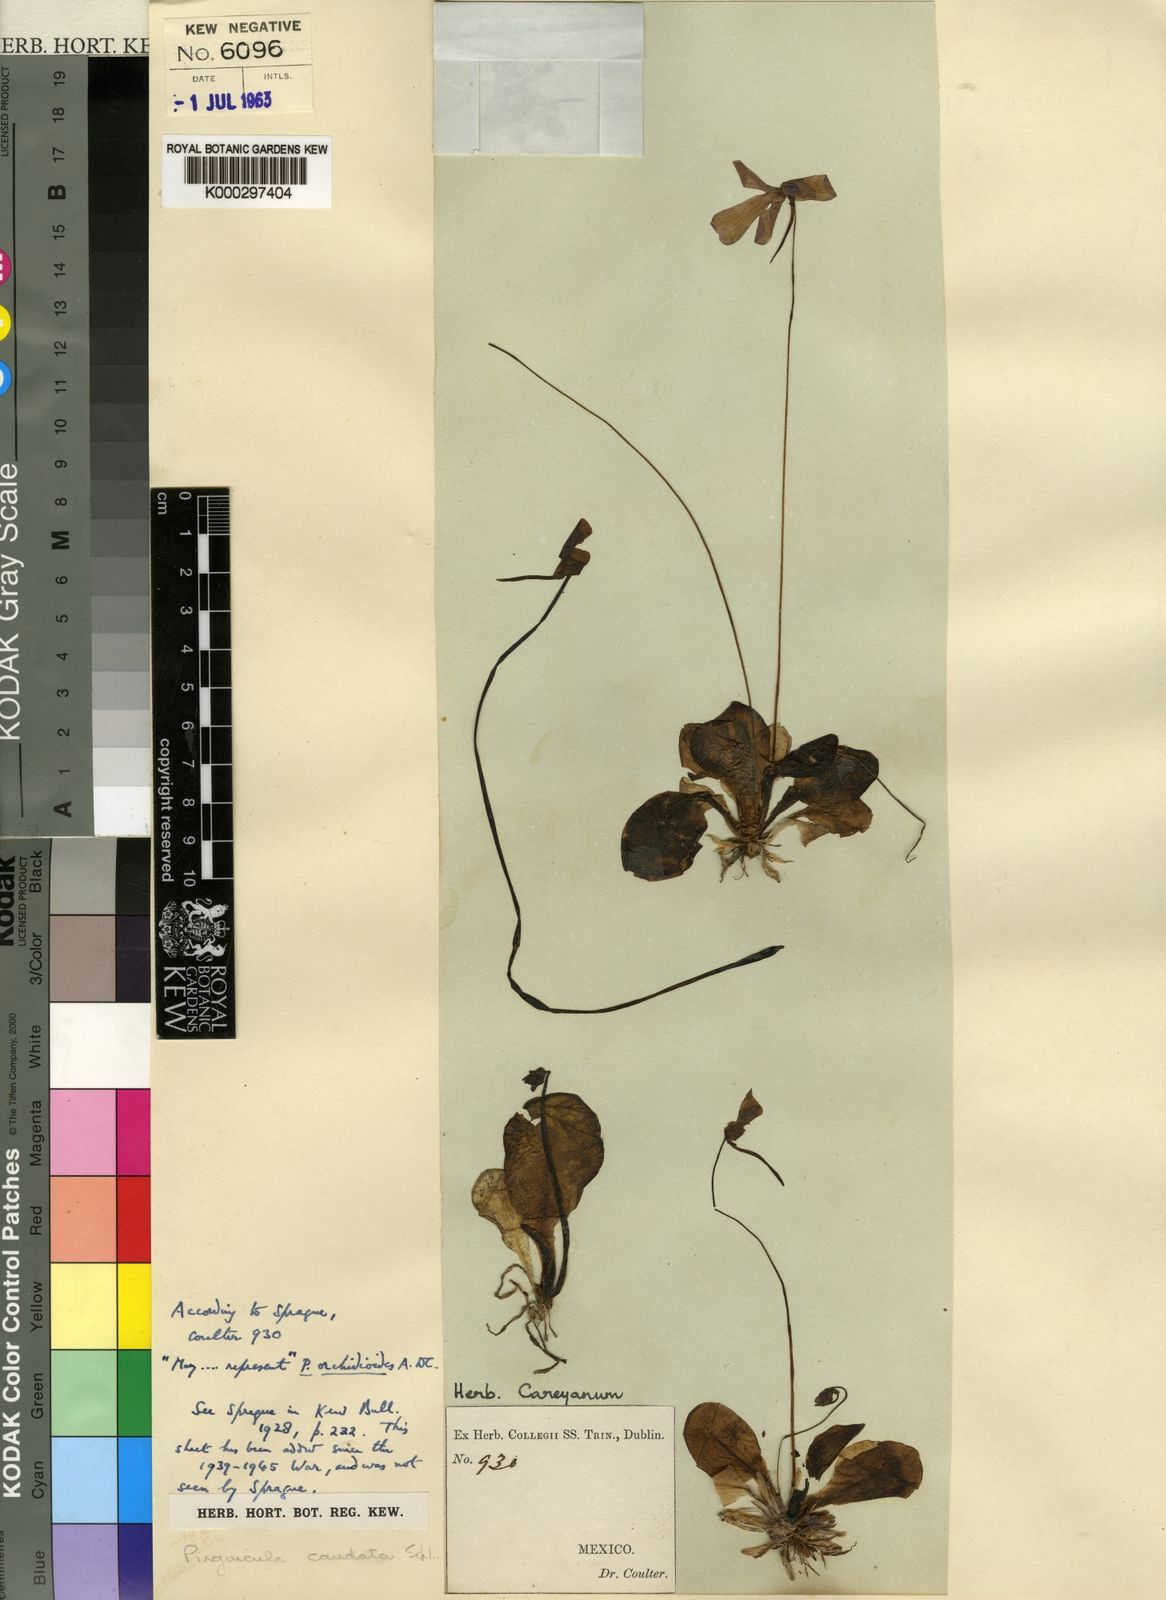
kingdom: Plantae
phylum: Tracheophyta
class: Magnoliopsida
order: Lamiales
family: Lentibulariaceae
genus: Pinguicula
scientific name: Pinguicula moranensis
